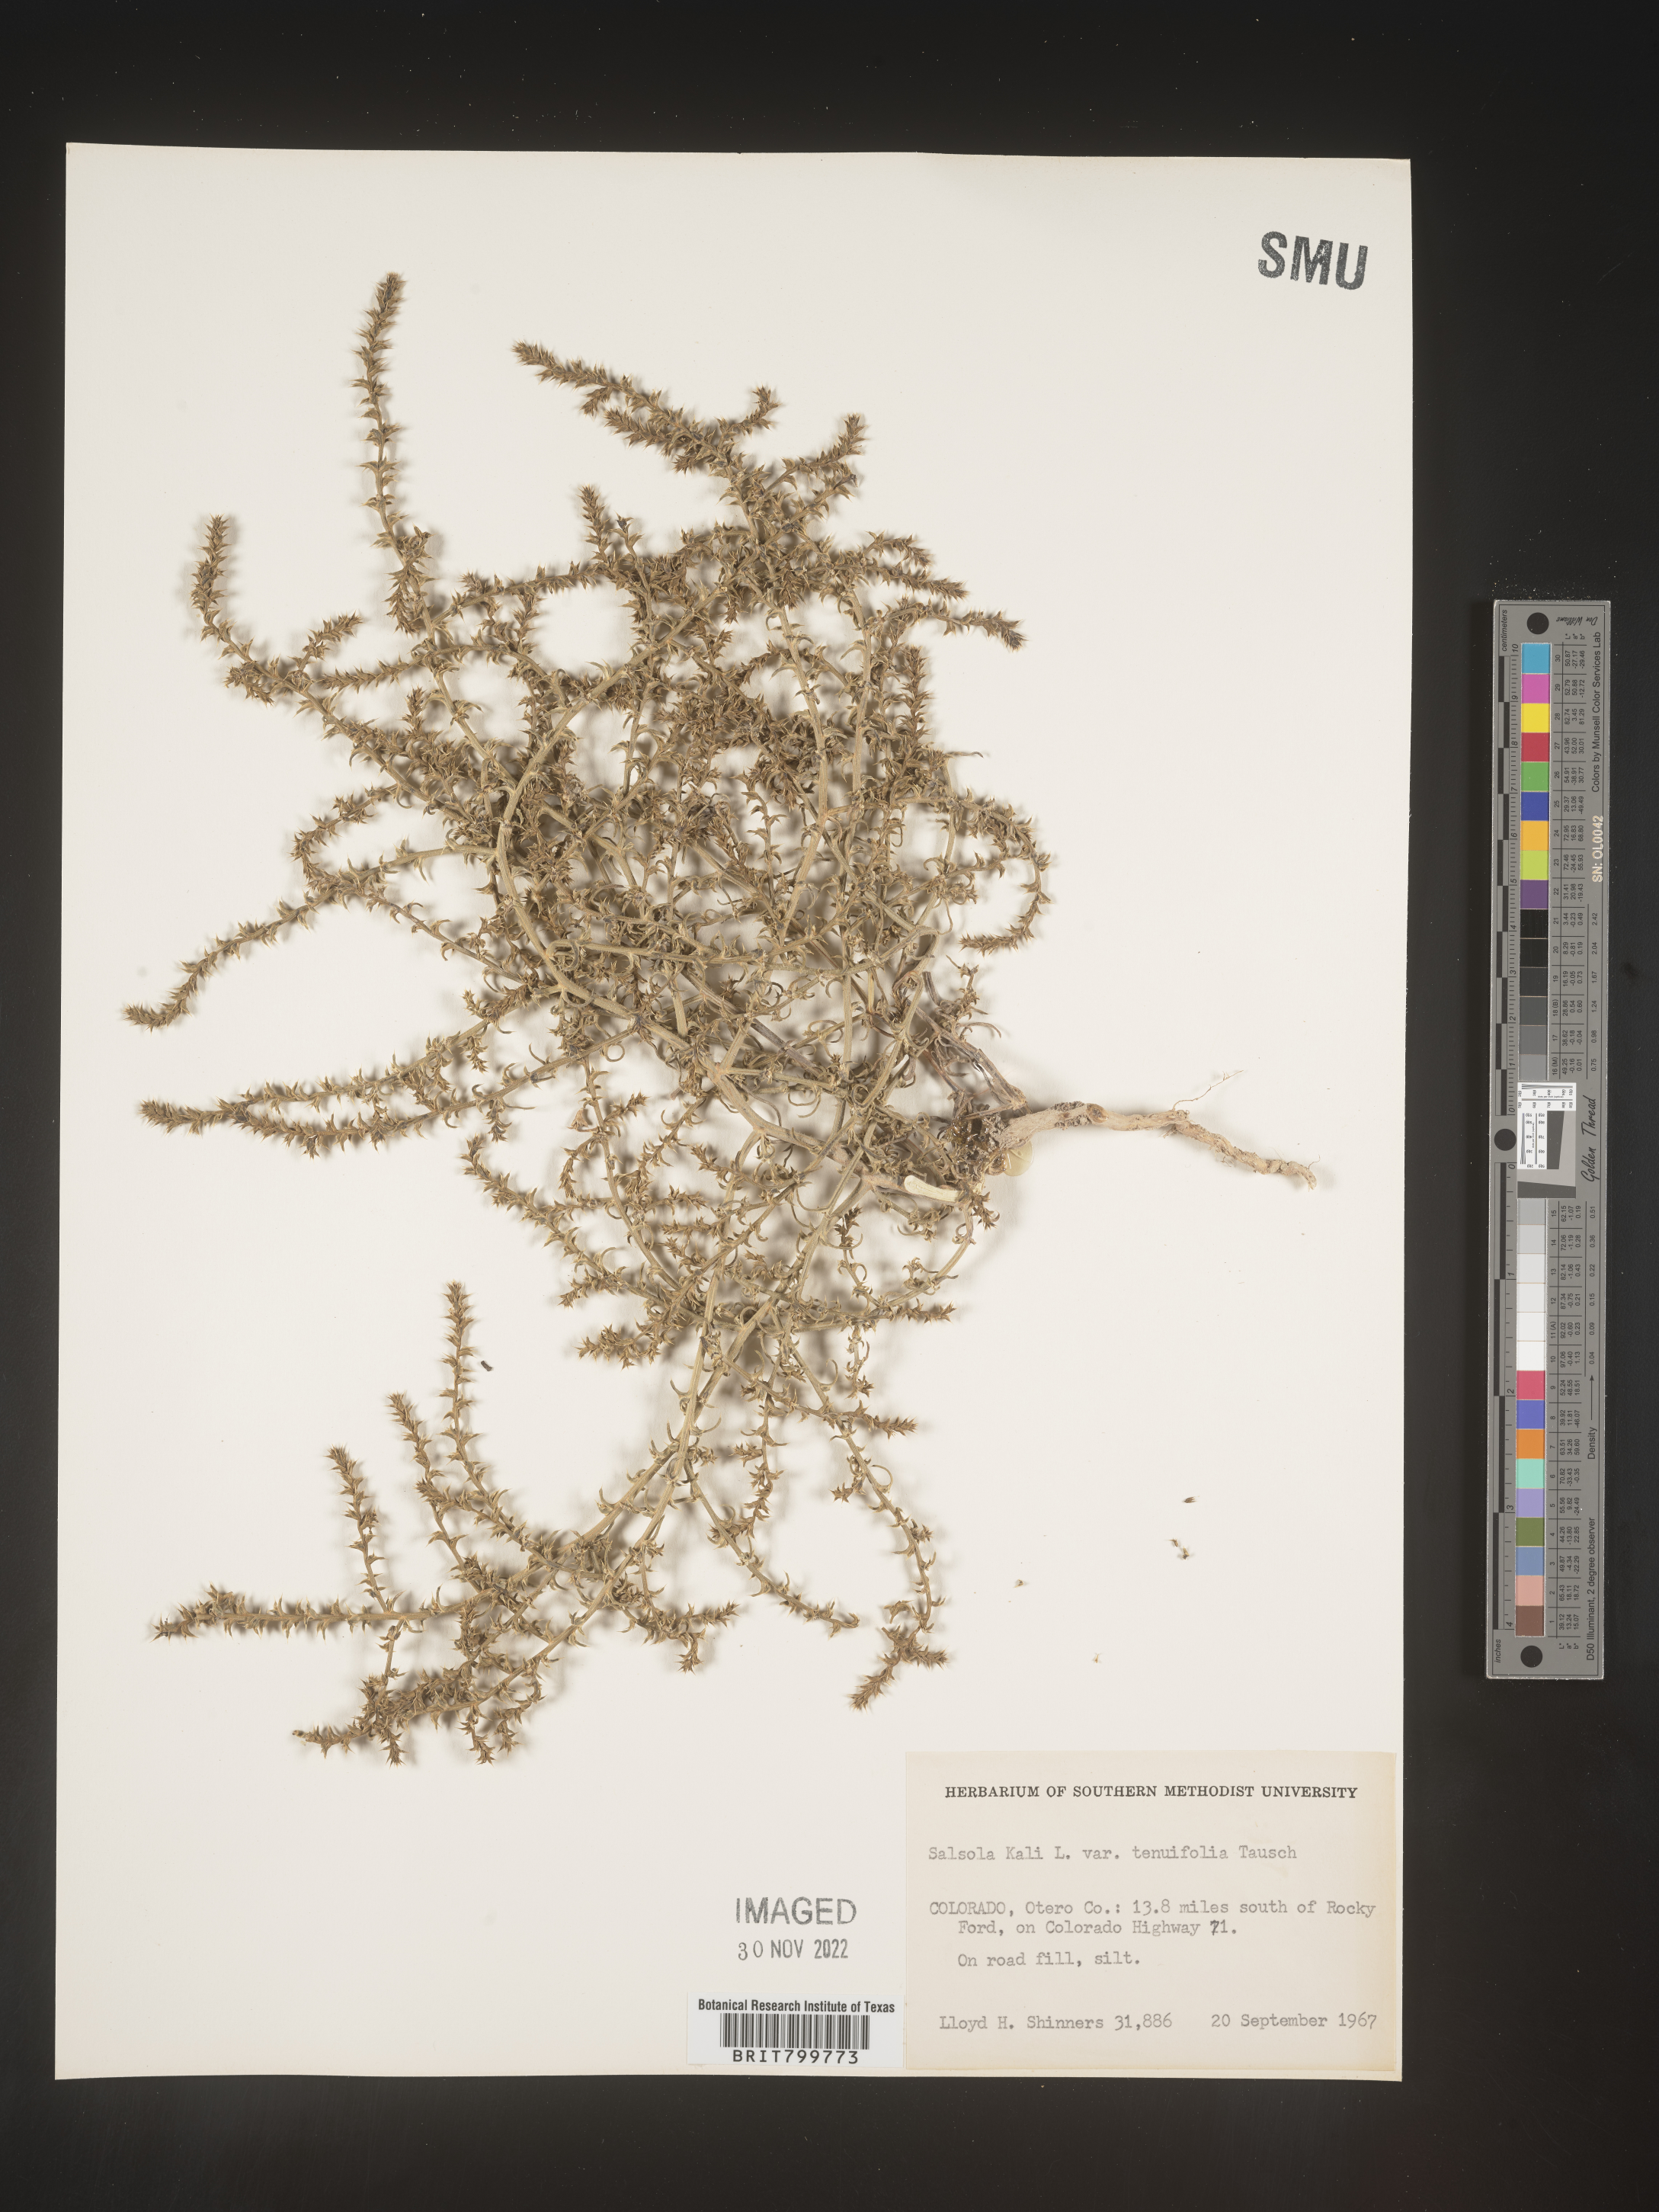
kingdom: Plantae
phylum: Tracheophyta
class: Magnoliopsida
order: Caryophyllales
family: Amaranthaceae
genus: Salsola
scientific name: Salsola tragus
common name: Prickly russian thistle
